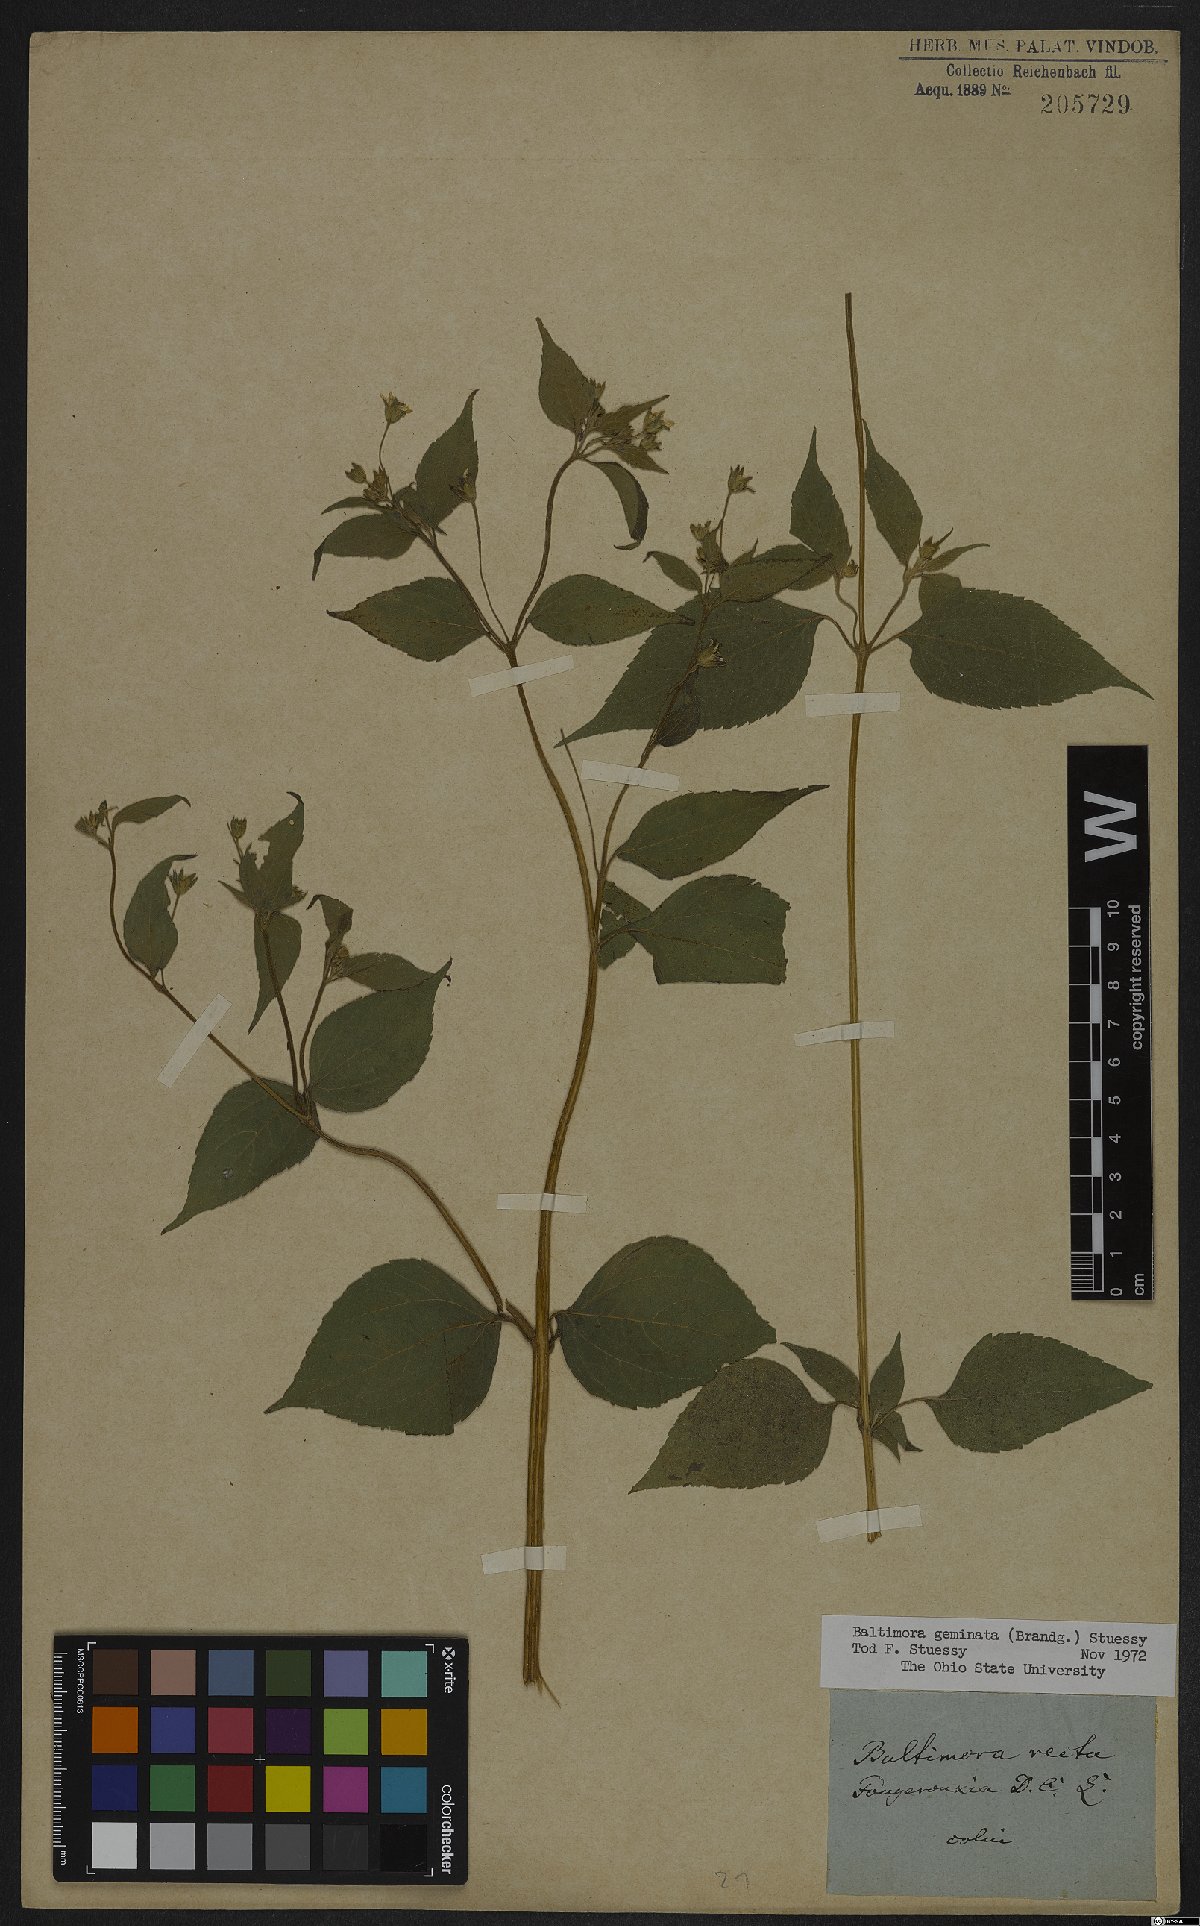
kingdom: Plantae
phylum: Tracheophyta
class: Magnoliopsida
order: Asterales
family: Asteraceae
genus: Baltimora
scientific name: Baltimora geminata
